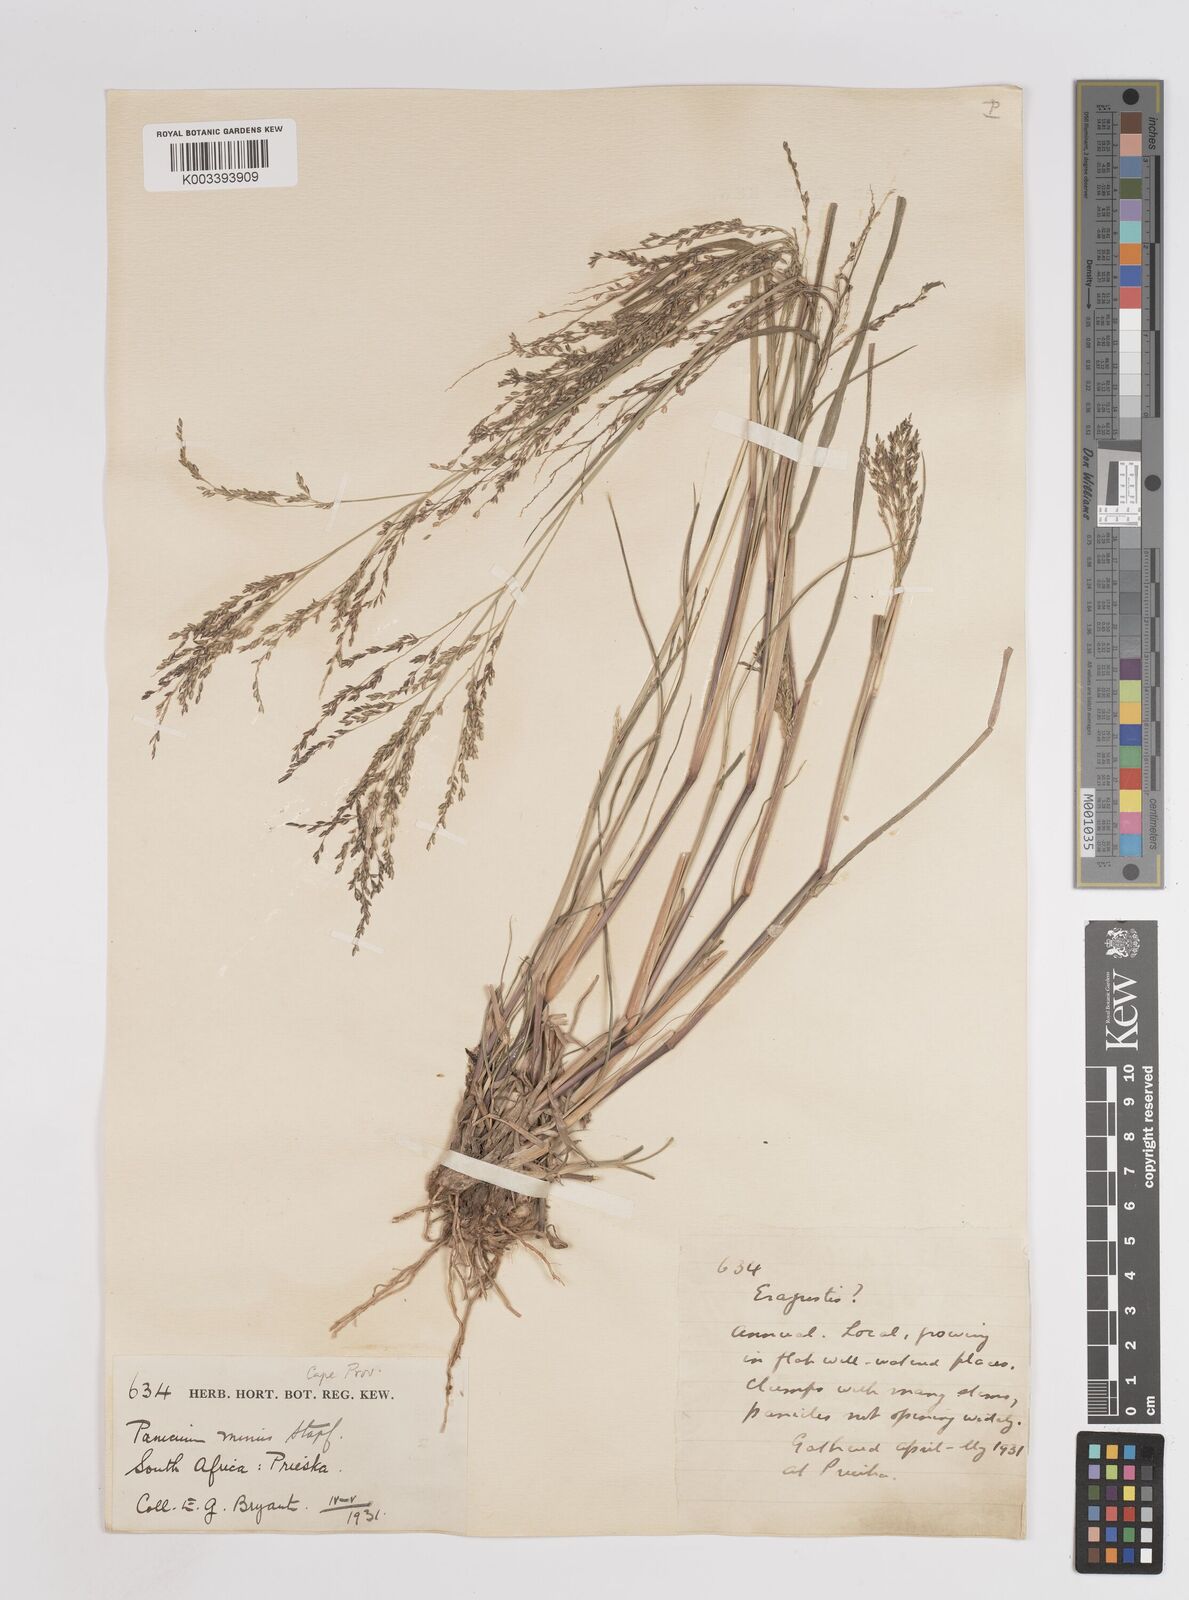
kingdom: Plantae
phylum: Tracheophyta
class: Liliopsida
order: Poales
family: Poaceae
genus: Panicum
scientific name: Panicum stapfianum
